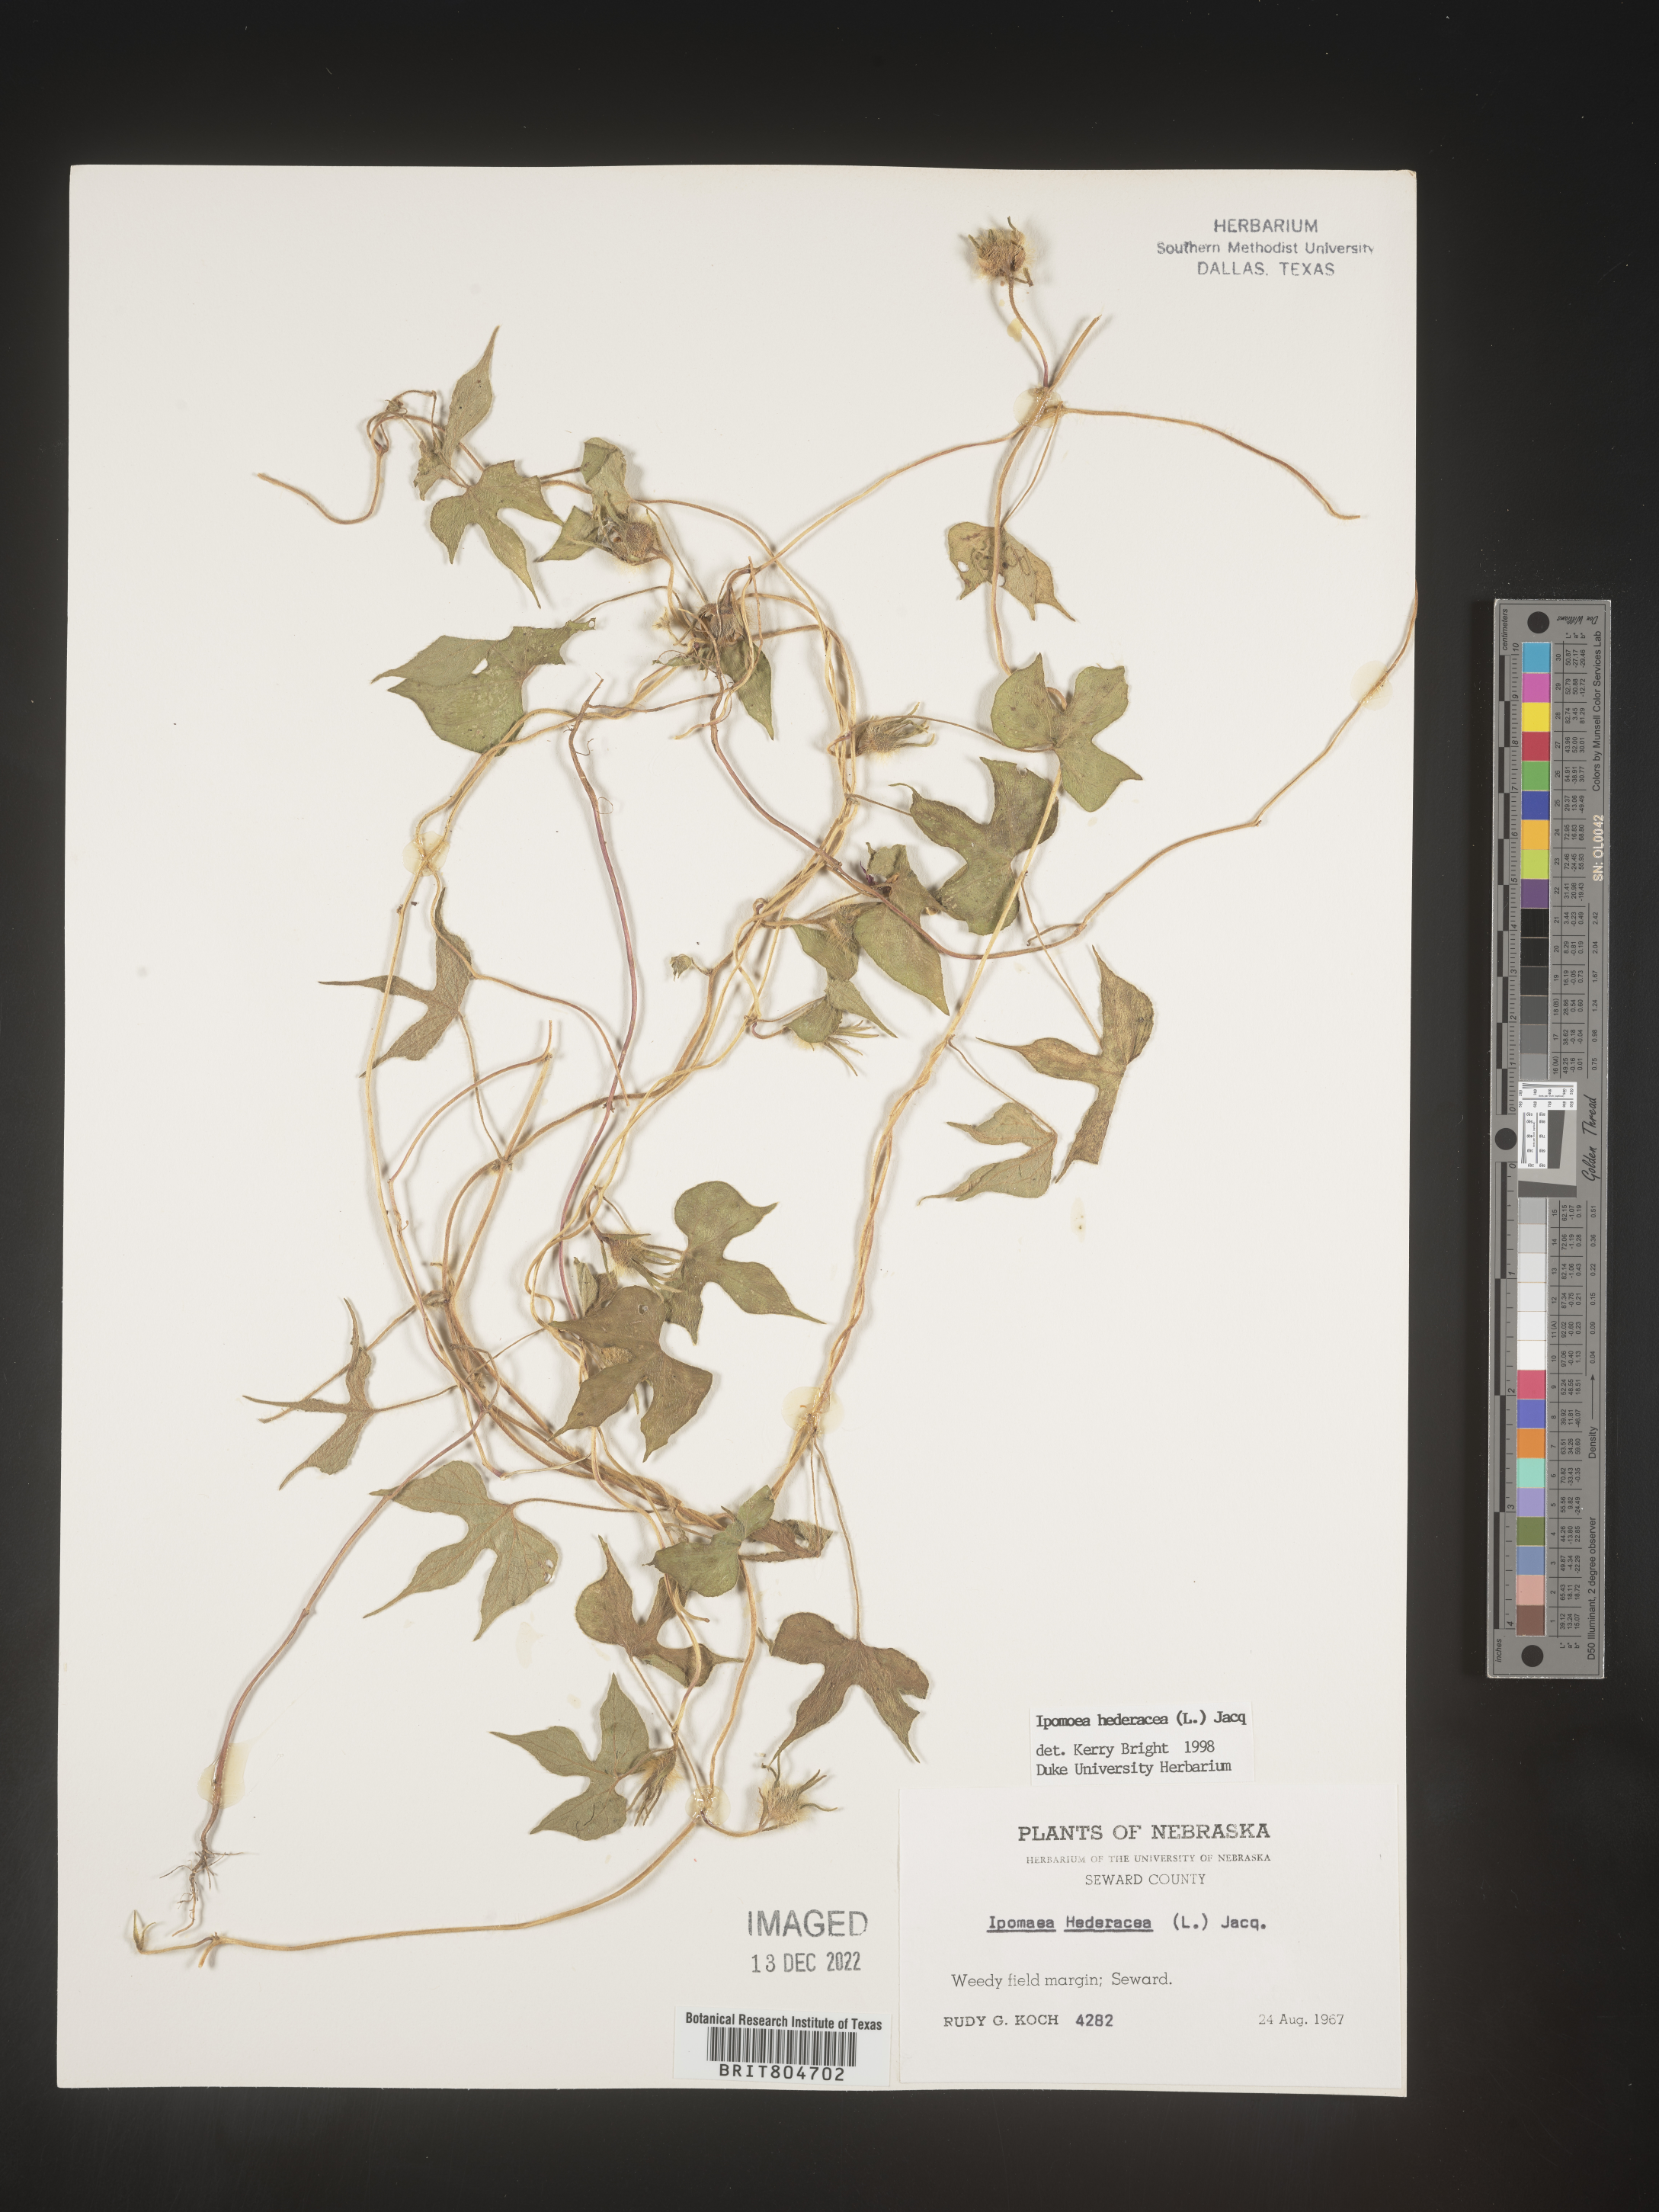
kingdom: Plantae
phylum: Tracheophyta
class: Magnoliopsida
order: Solanales
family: Convolvulaceae
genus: Ipomoea
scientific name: Ipomoea hederacea
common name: Ivy-leaved morning-glory
